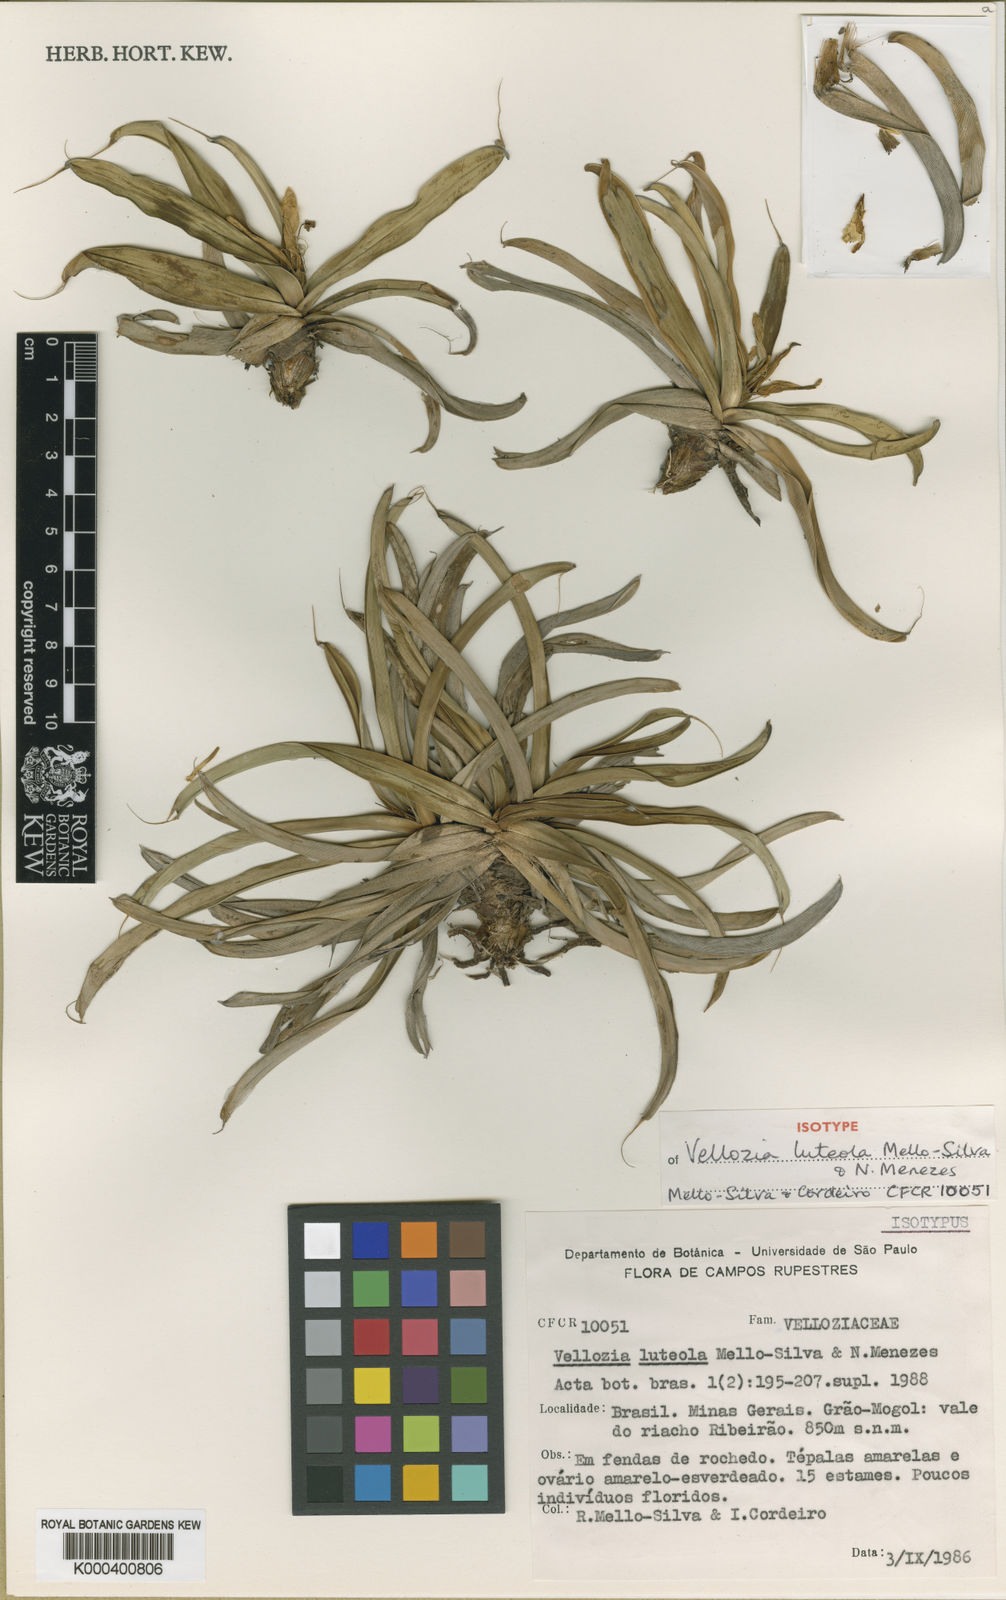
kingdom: Plantae
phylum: Tracheophyta
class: Liliopsida
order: Pandanales
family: Velloziaceae
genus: Vellozia
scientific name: Vellozia luteola
